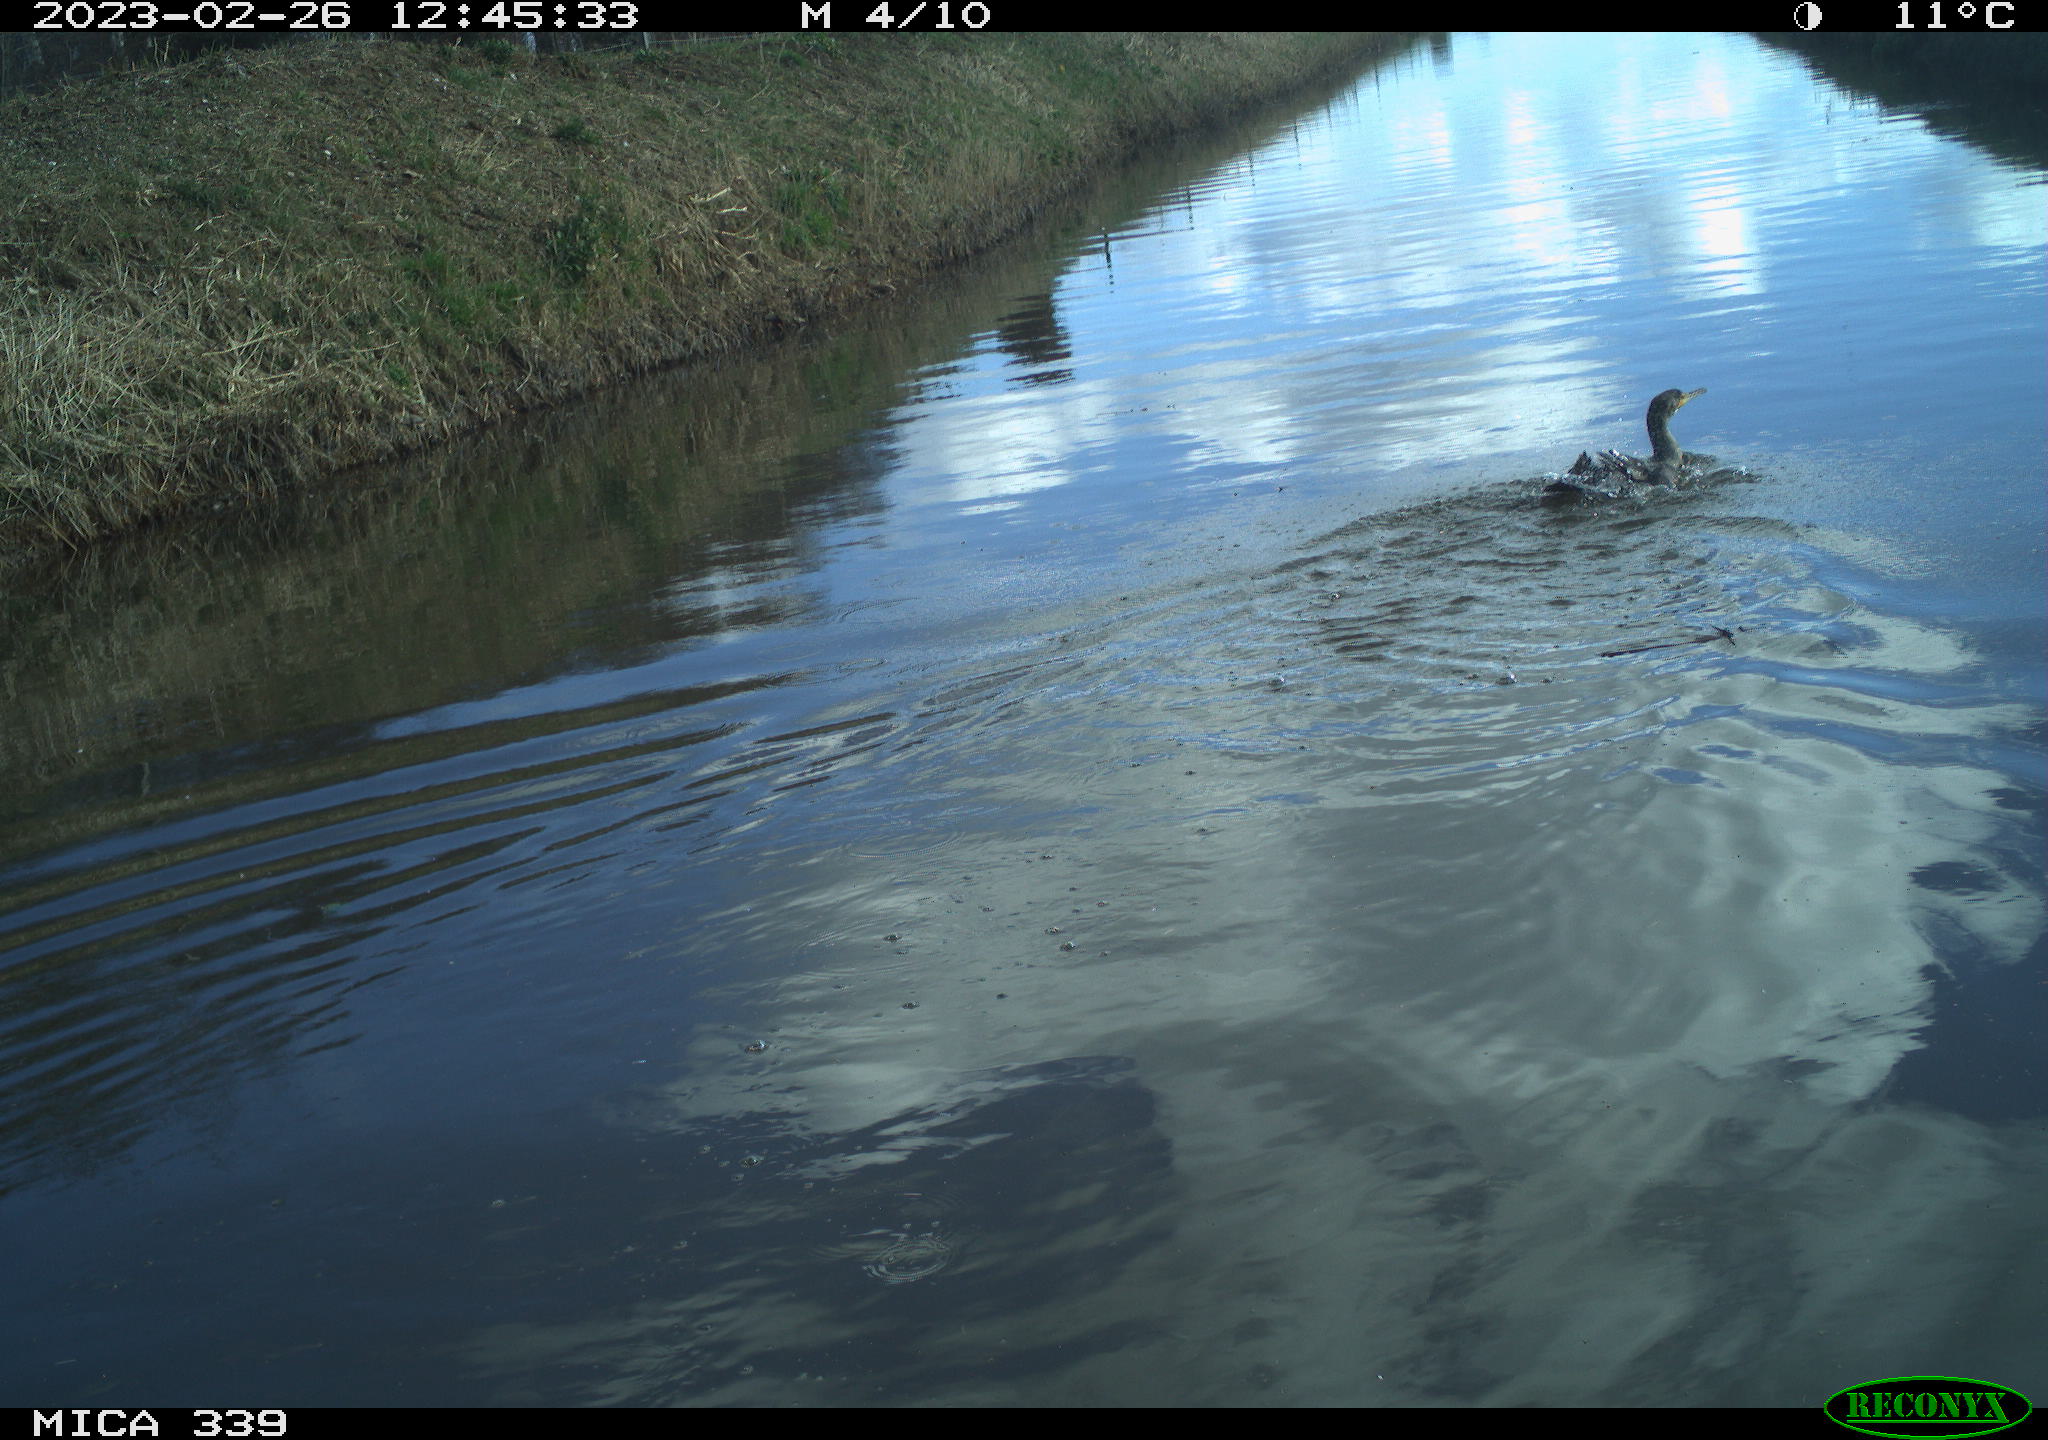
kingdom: Animalia
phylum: Chordata
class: Aves
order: Suliformes
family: Phalacrocoracidae
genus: Phalacrocorax
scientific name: Phalacrocorax carbo
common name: Great cormorant
